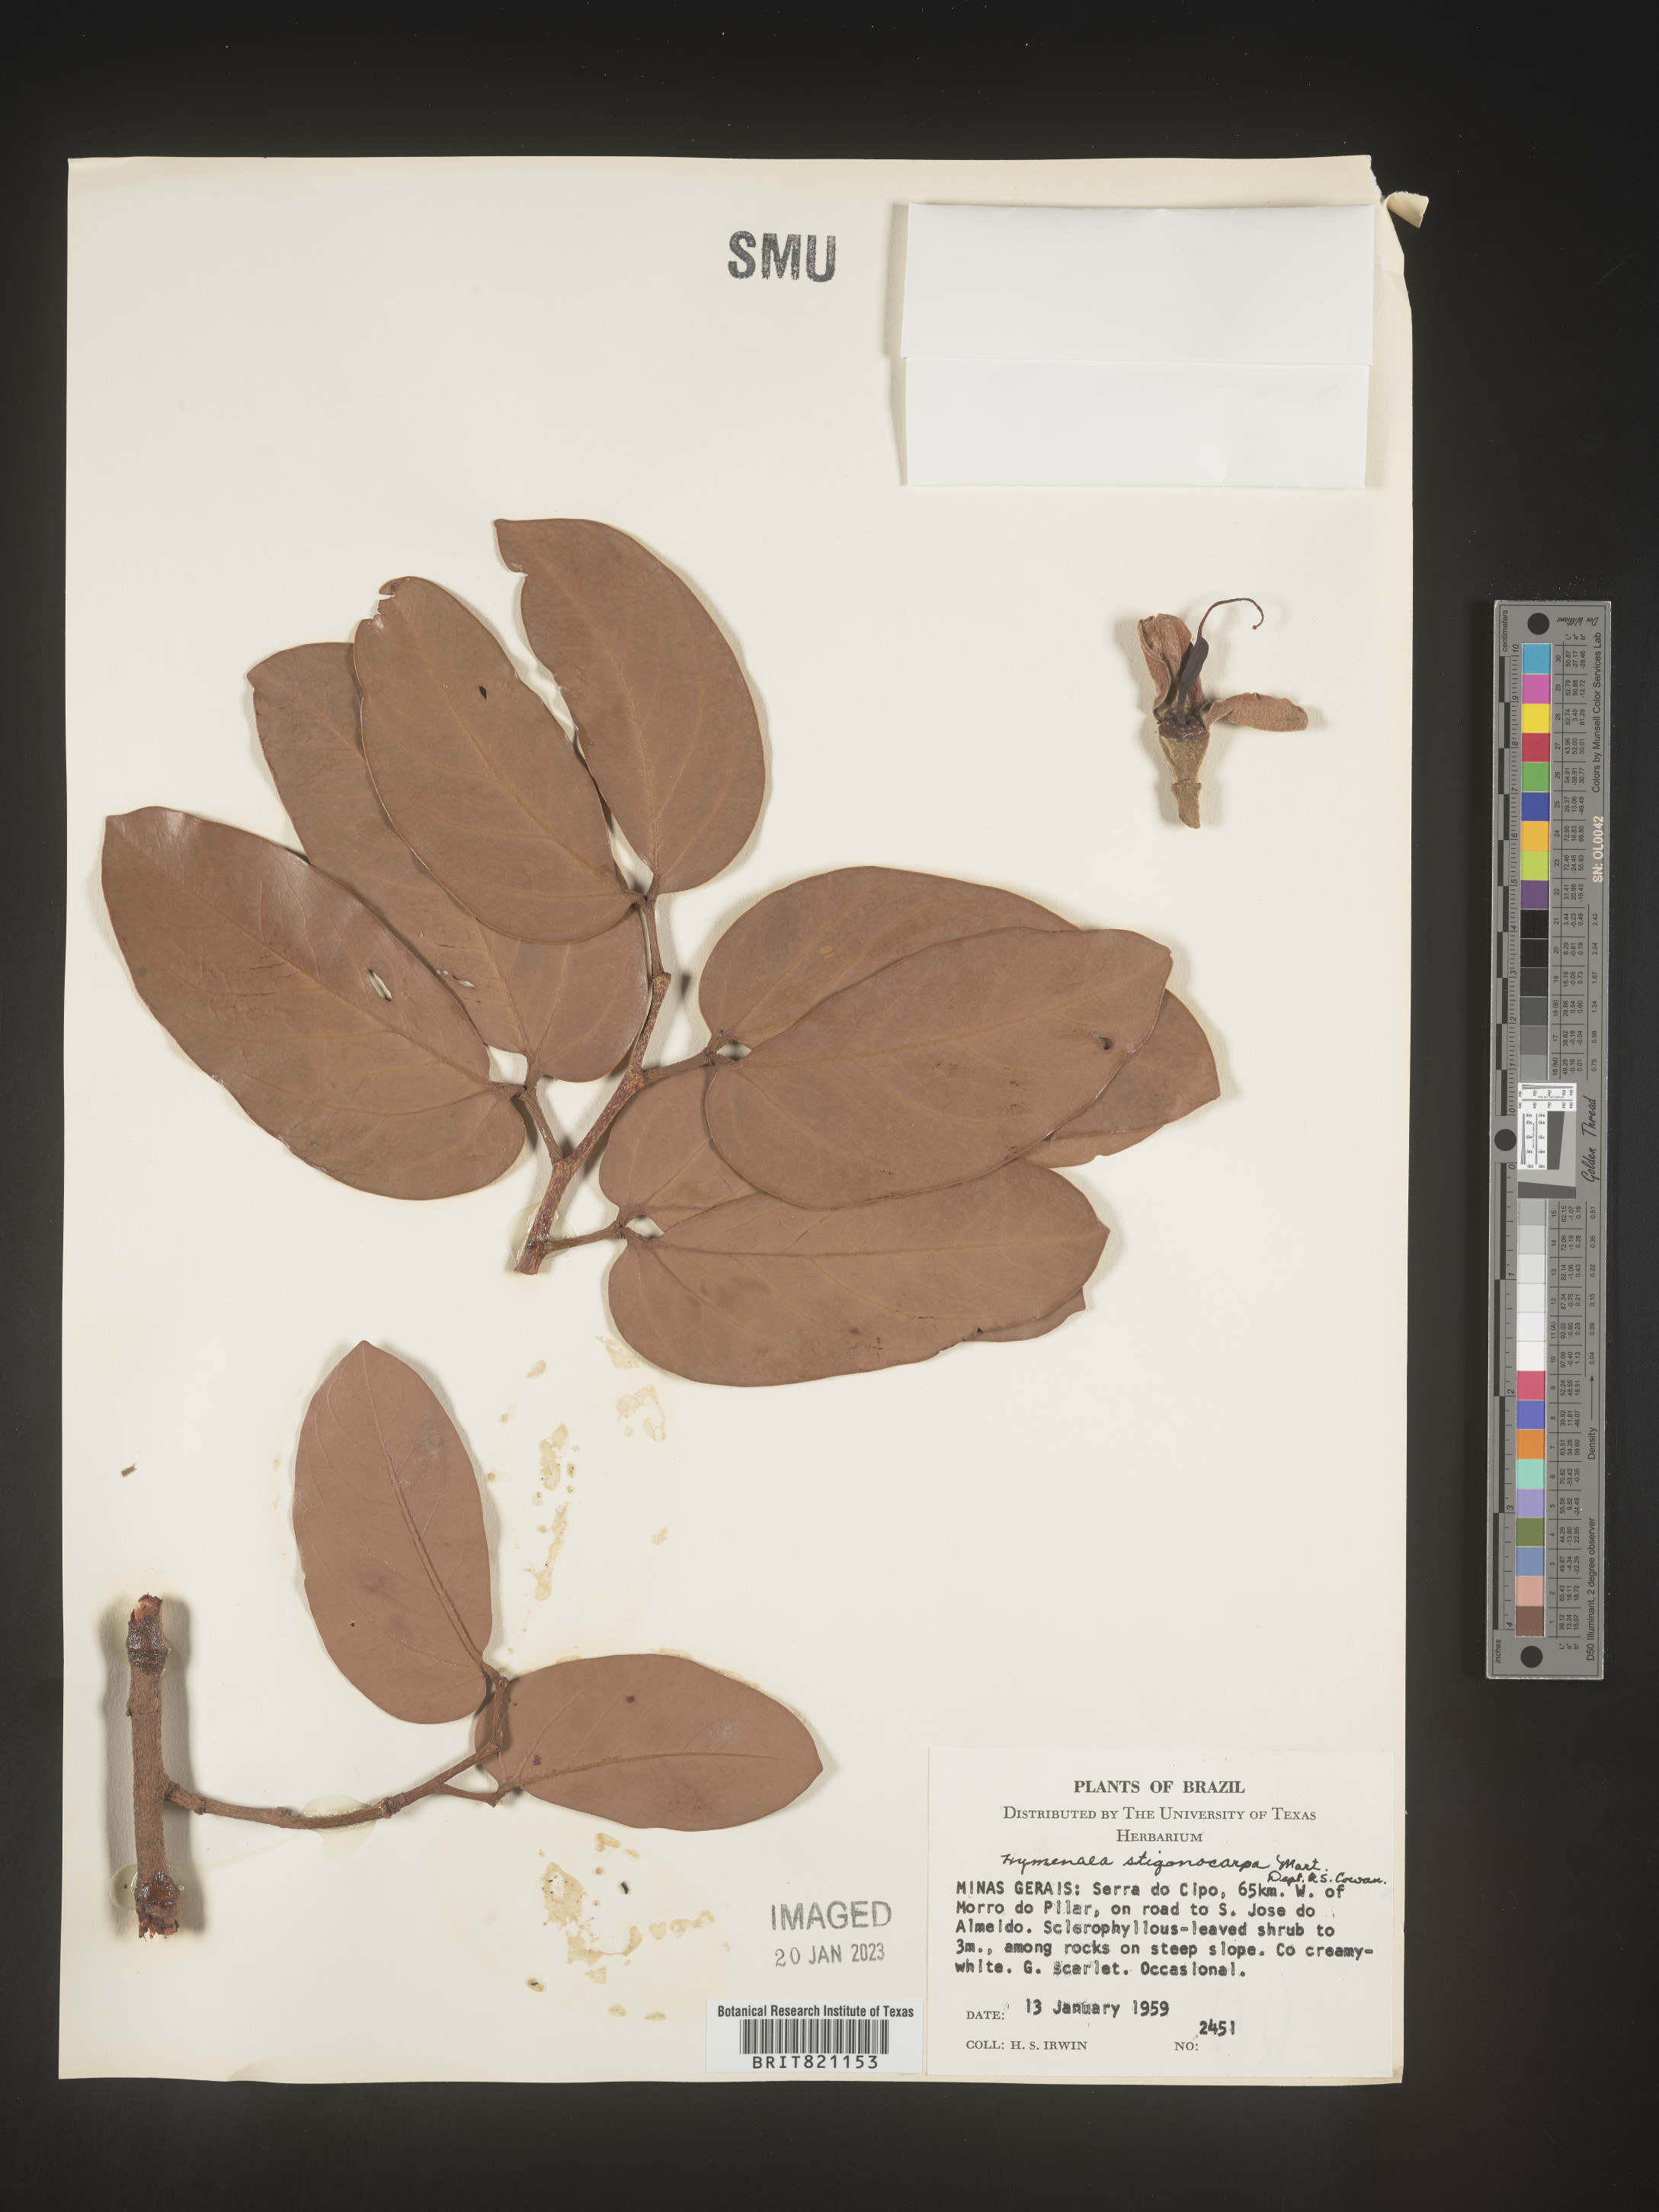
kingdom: Plantae
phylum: Tracheophyta
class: Magnoliopsida
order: Fabales
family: Fabaceae
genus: Hymenaea
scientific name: Hymenaea
